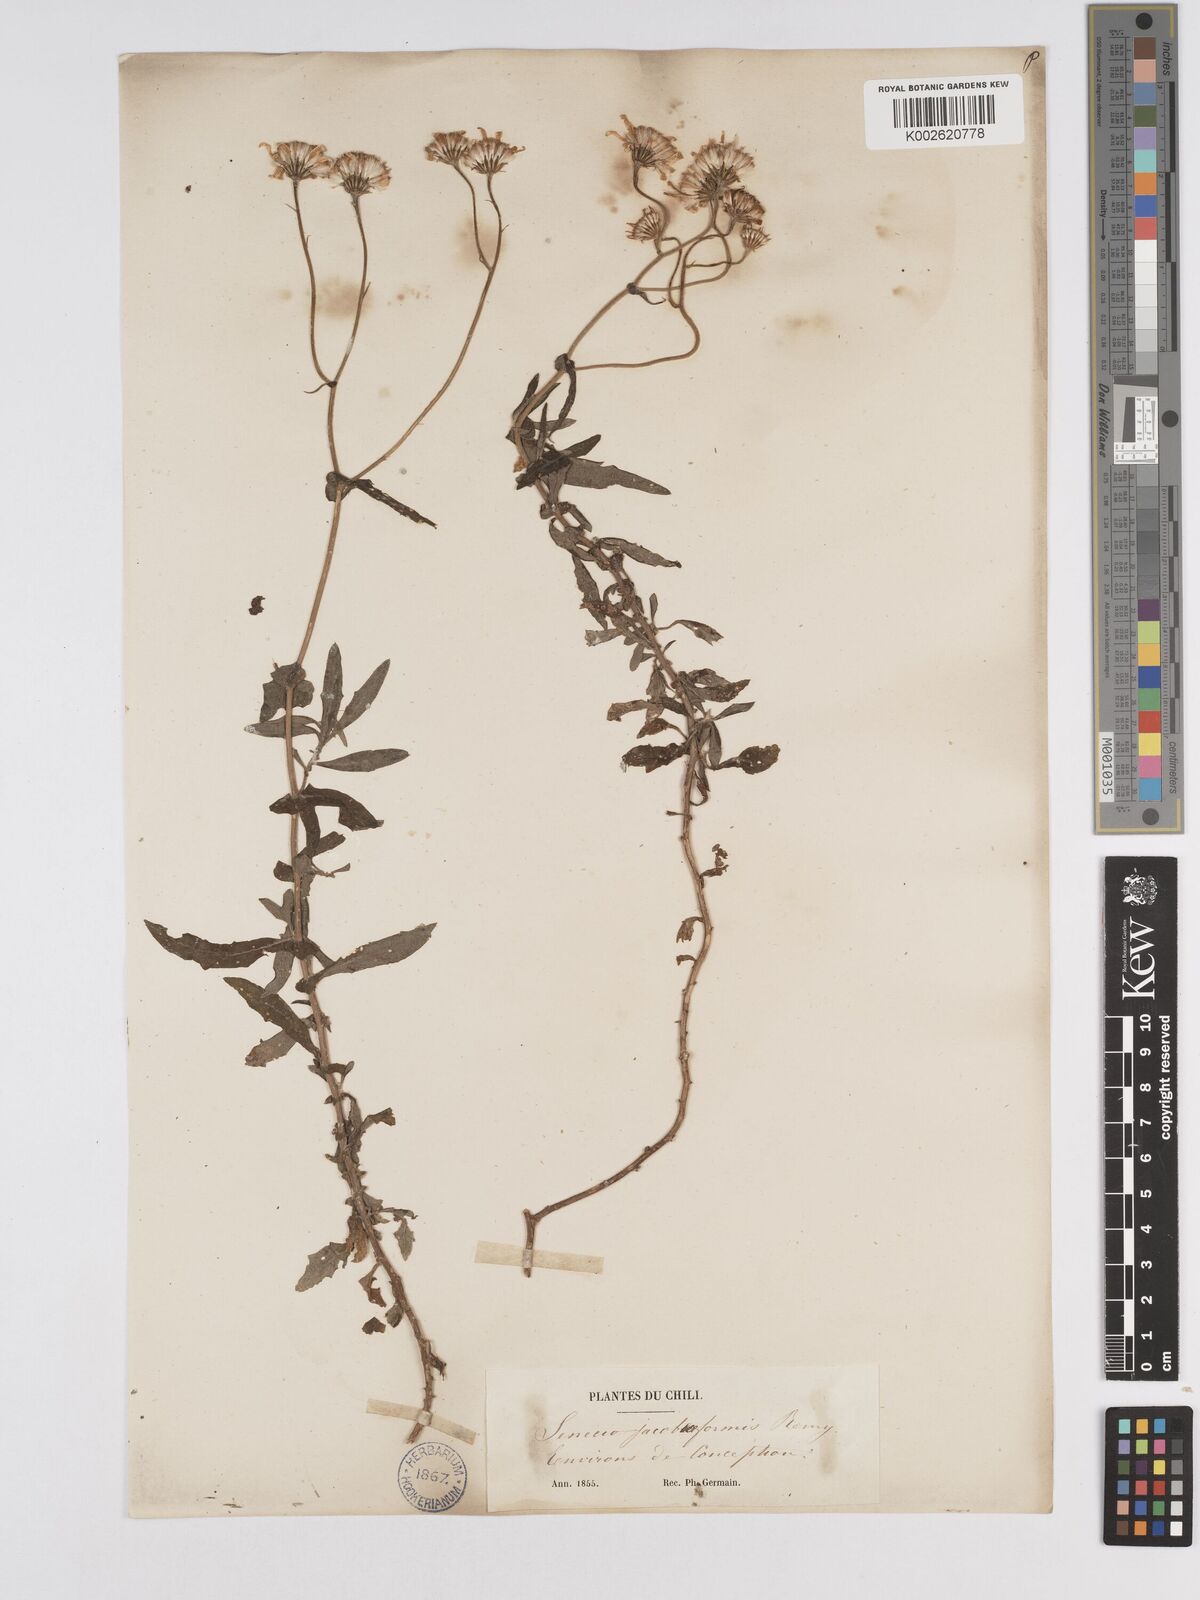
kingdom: Plantae
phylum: Tracheophyta
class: Magnoliopsida
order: Asterales
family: Asteraceae
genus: Senecio
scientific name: Senecio jacobaeiformis
